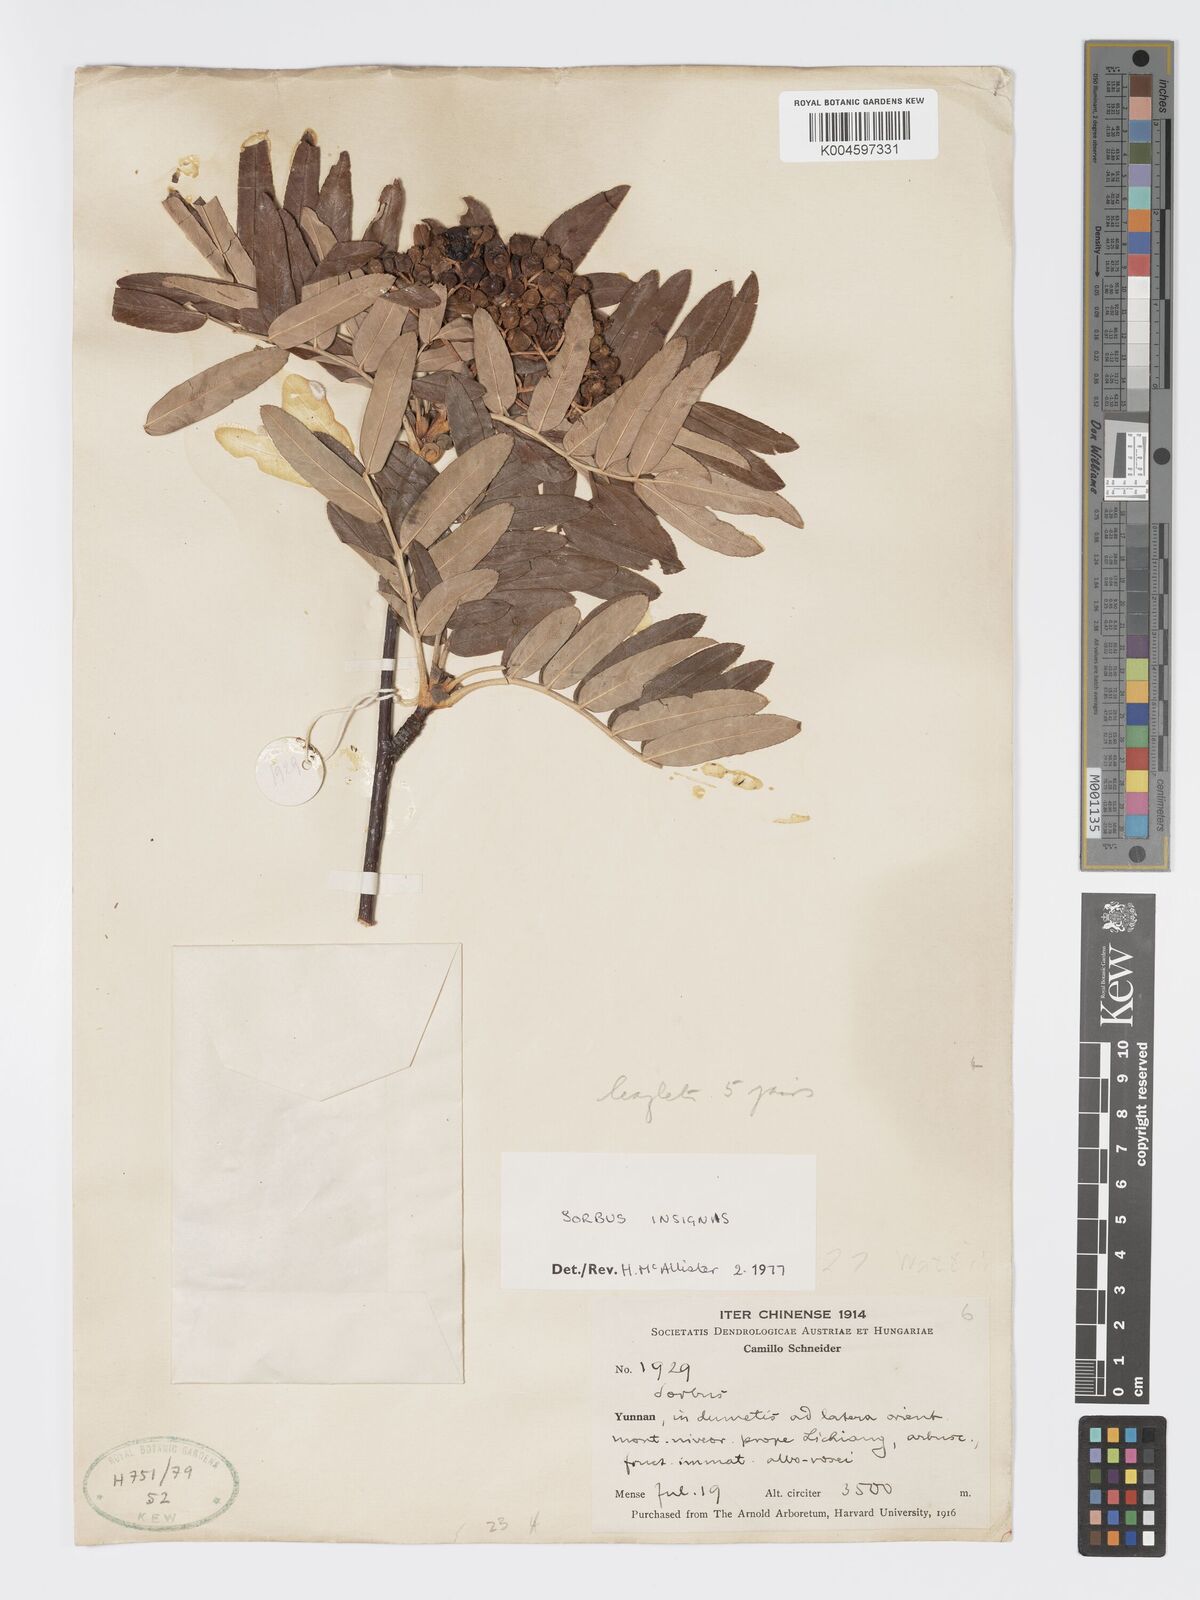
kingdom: Plantae
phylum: Tracheophyta
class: Magnoliopsida
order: Rosales
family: Rosaceae
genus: Sorbus
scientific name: Sorbus insignis
